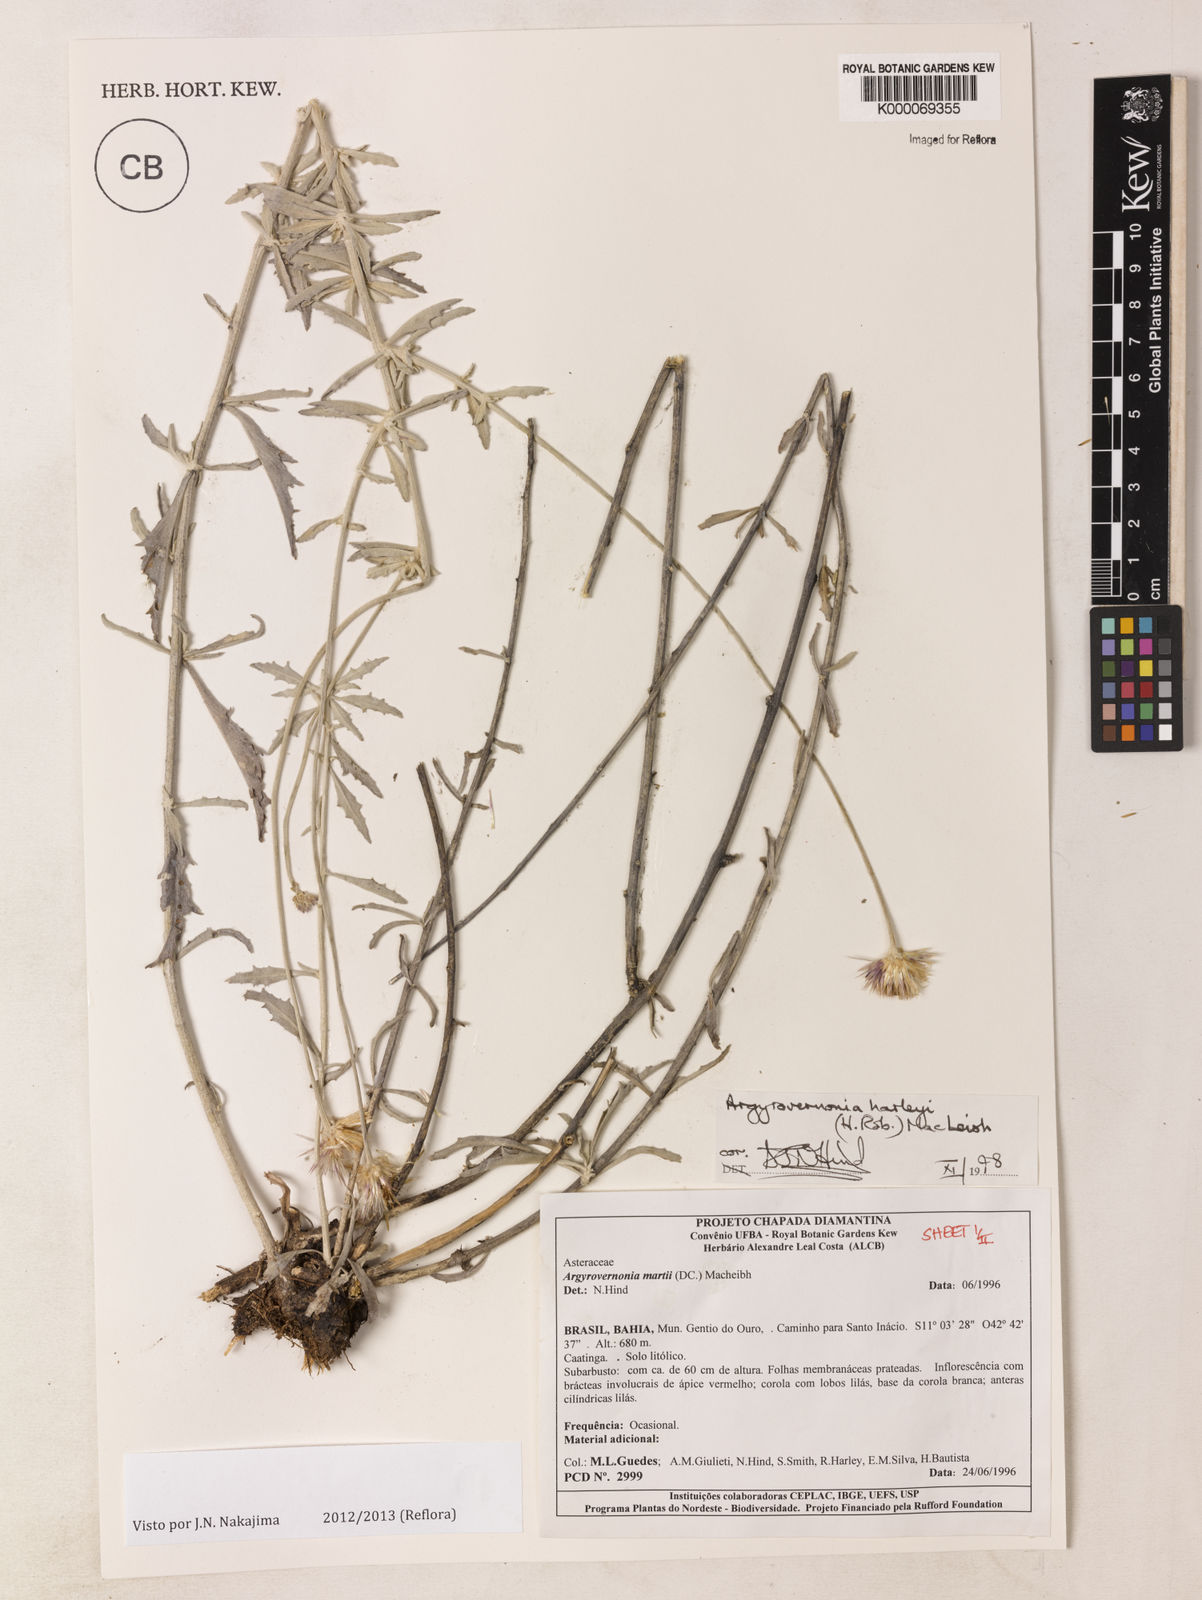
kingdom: Plantae
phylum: Tracheophyta
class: Magnoliopsida
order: Asterales
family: Asteraceae
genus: Chresta
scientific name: Chresta harleyi
